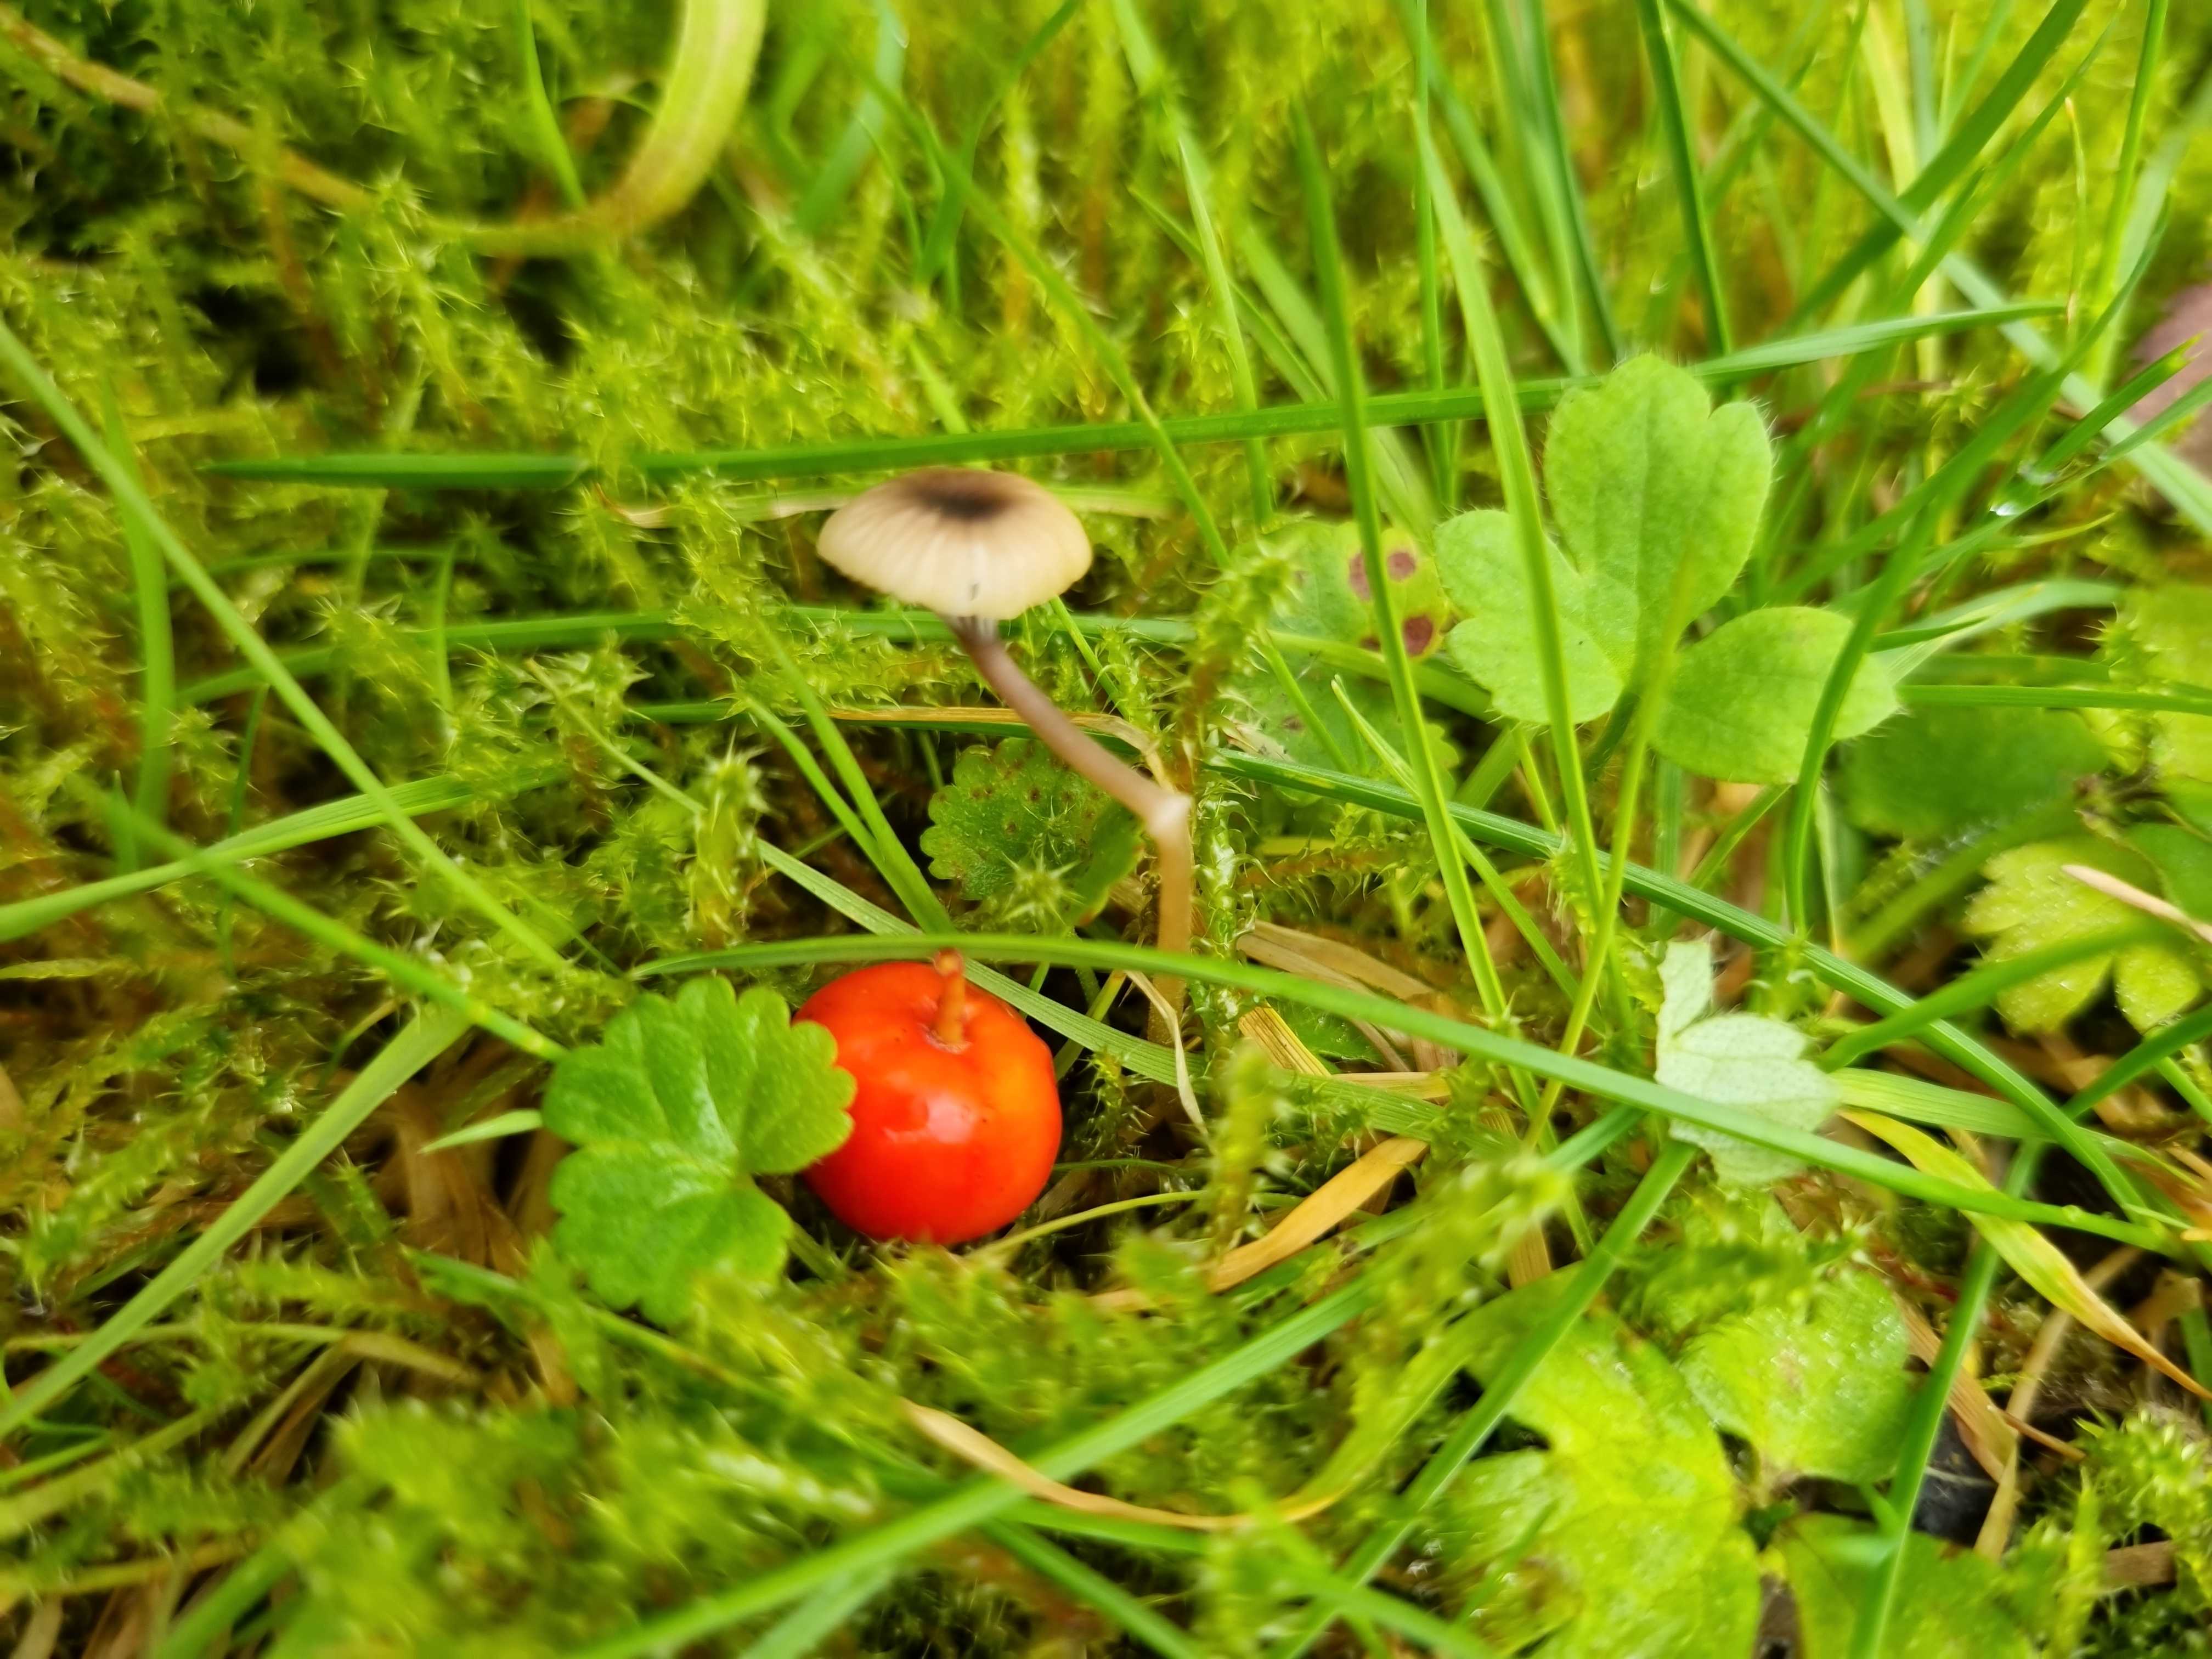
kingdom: Fungi
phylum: Basidiomycota
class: Agaricomycetes
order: Hymenochaetales
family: Rickenellaceae
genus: Rickenella
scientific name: Rickenella swartzii
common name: finstokket mosnavlehat
